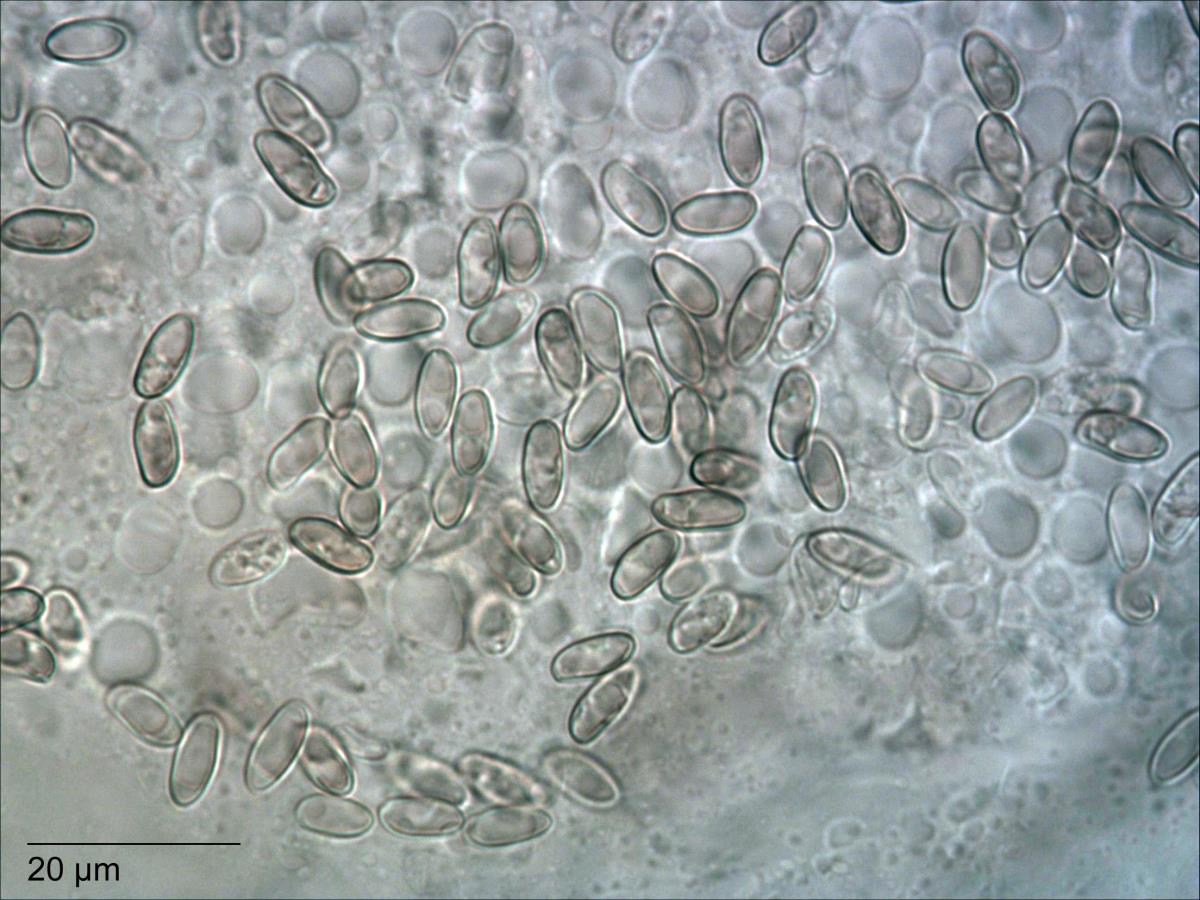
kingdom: Fungi
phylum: Basidiomycota
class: Agaricomycetes
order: Boletales
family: Boletaceae
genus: Xerocomus
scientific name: Xerocomus nothofagi
